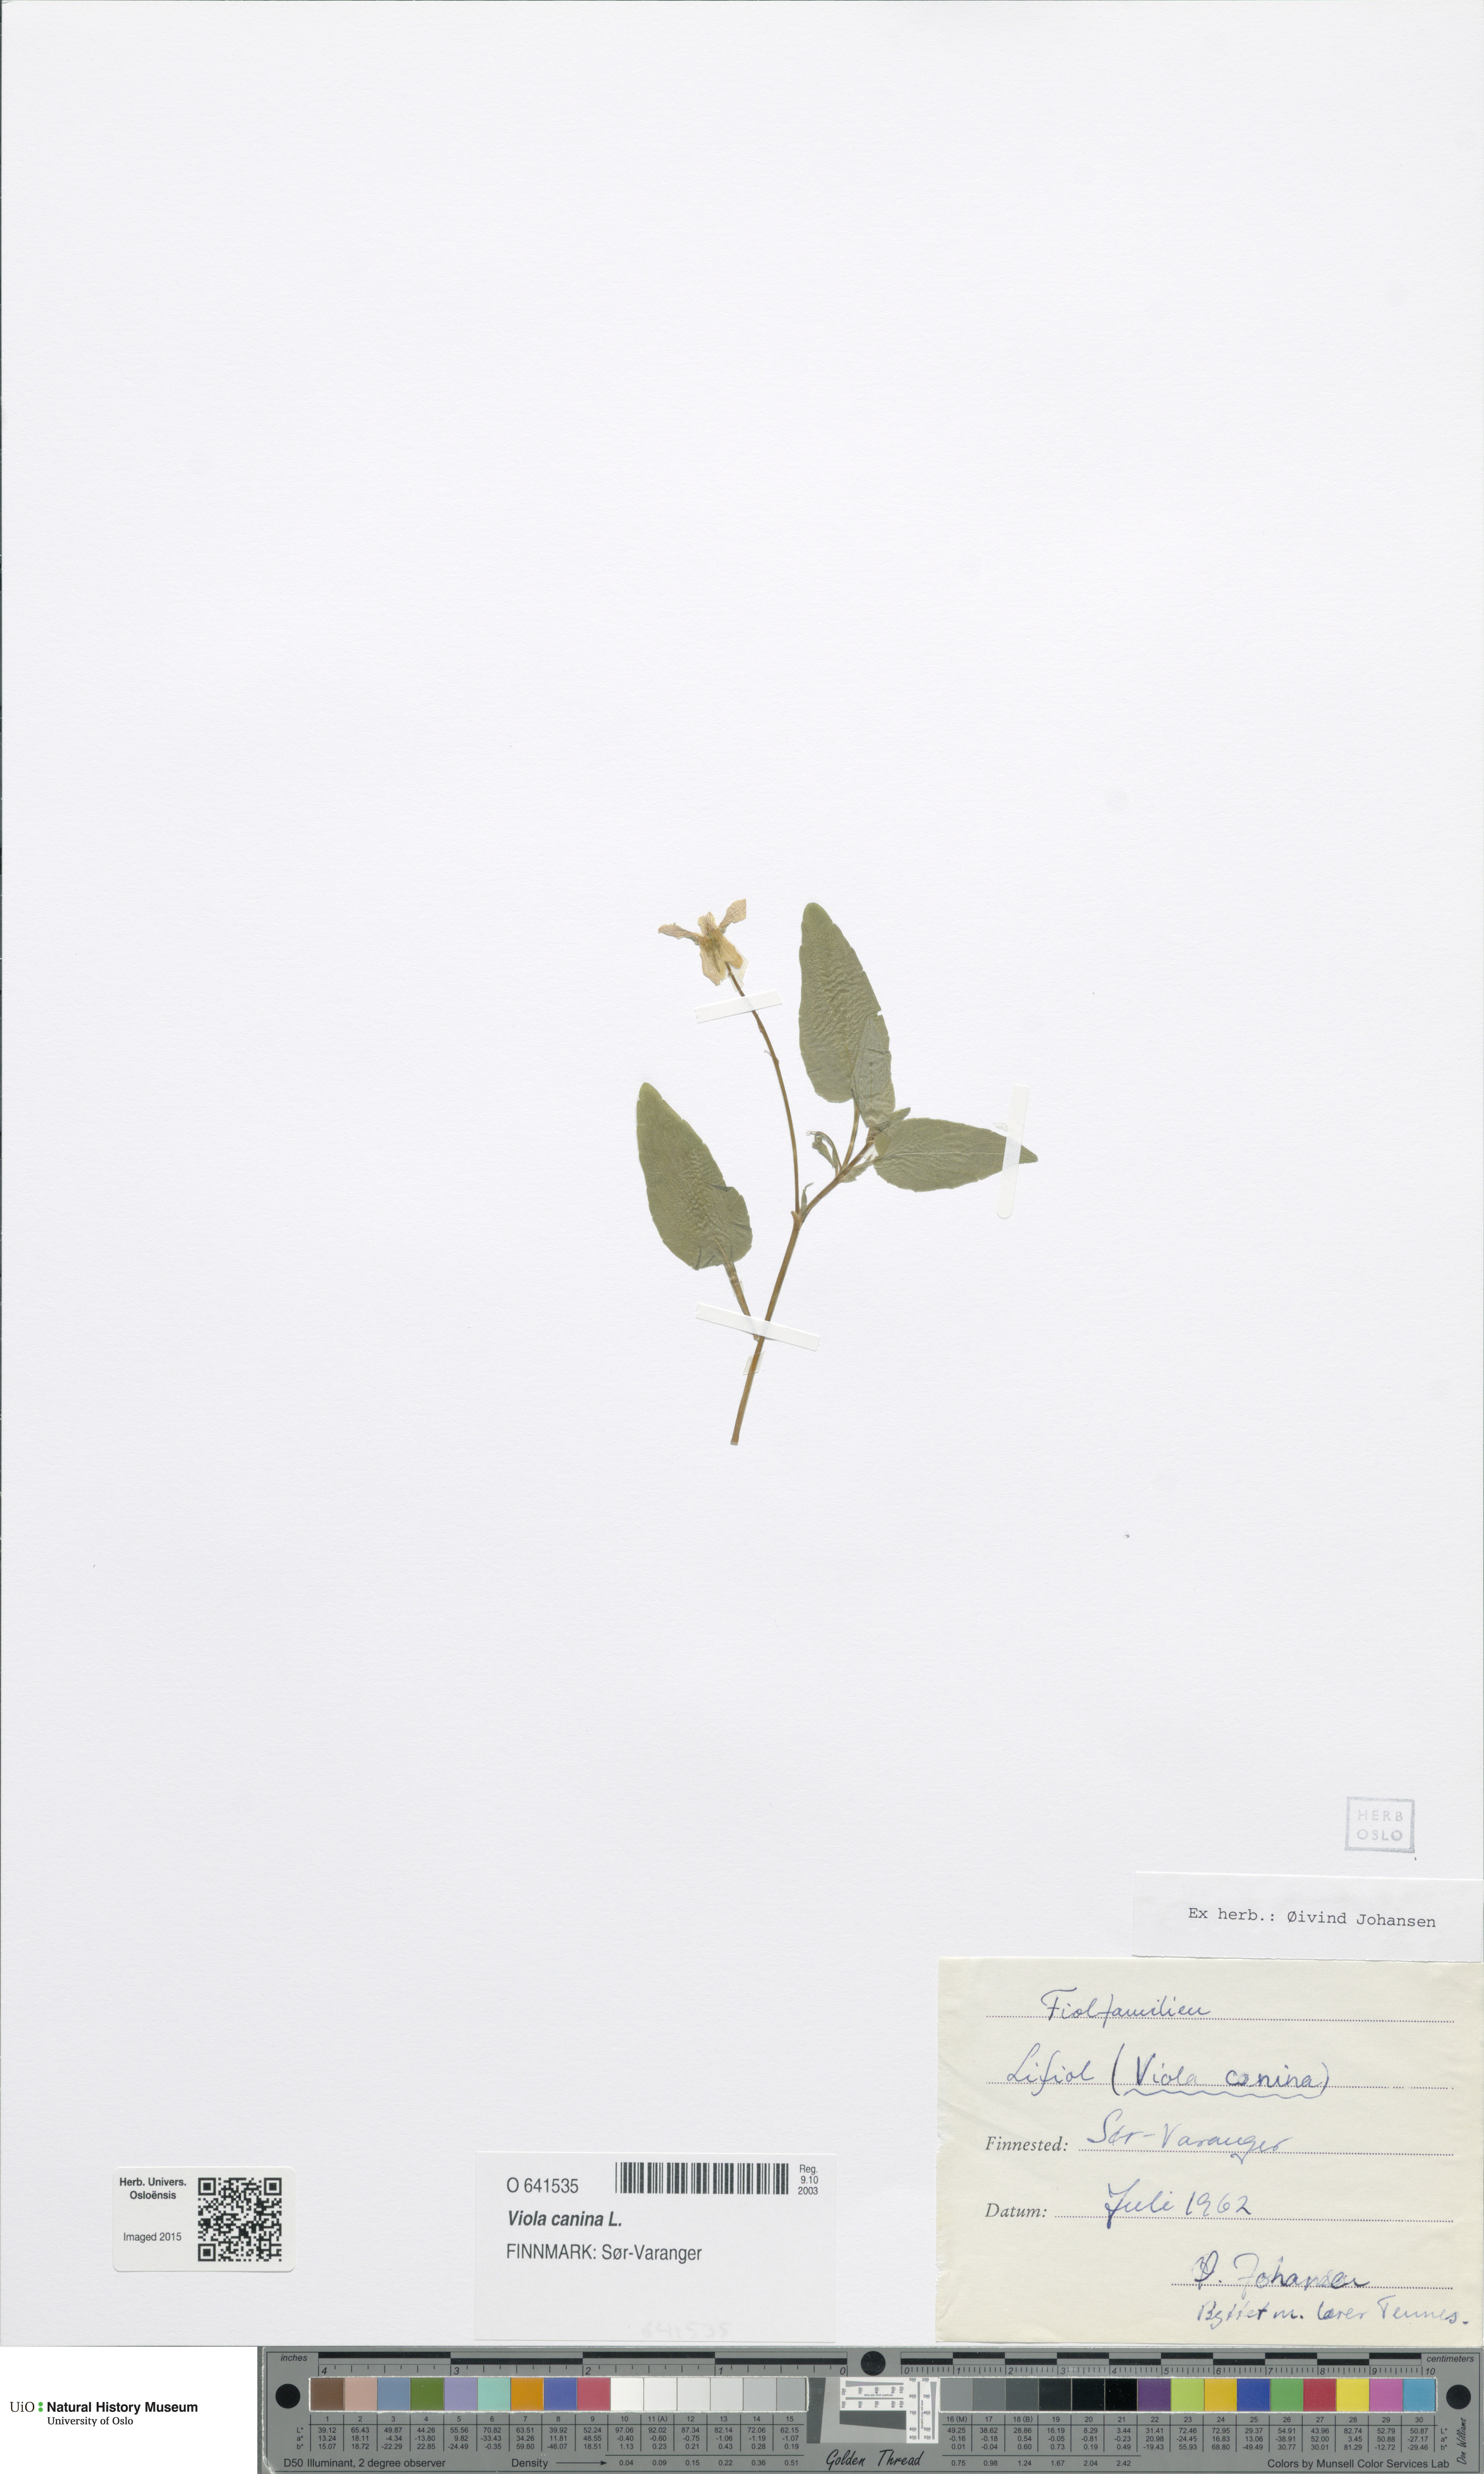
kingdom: Plantae
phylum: Tracheophyta
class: Magnoliopsida
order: Malpighiales
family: Violaceae
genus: Viola
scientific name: Viola canina
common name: Heath dog-violet
